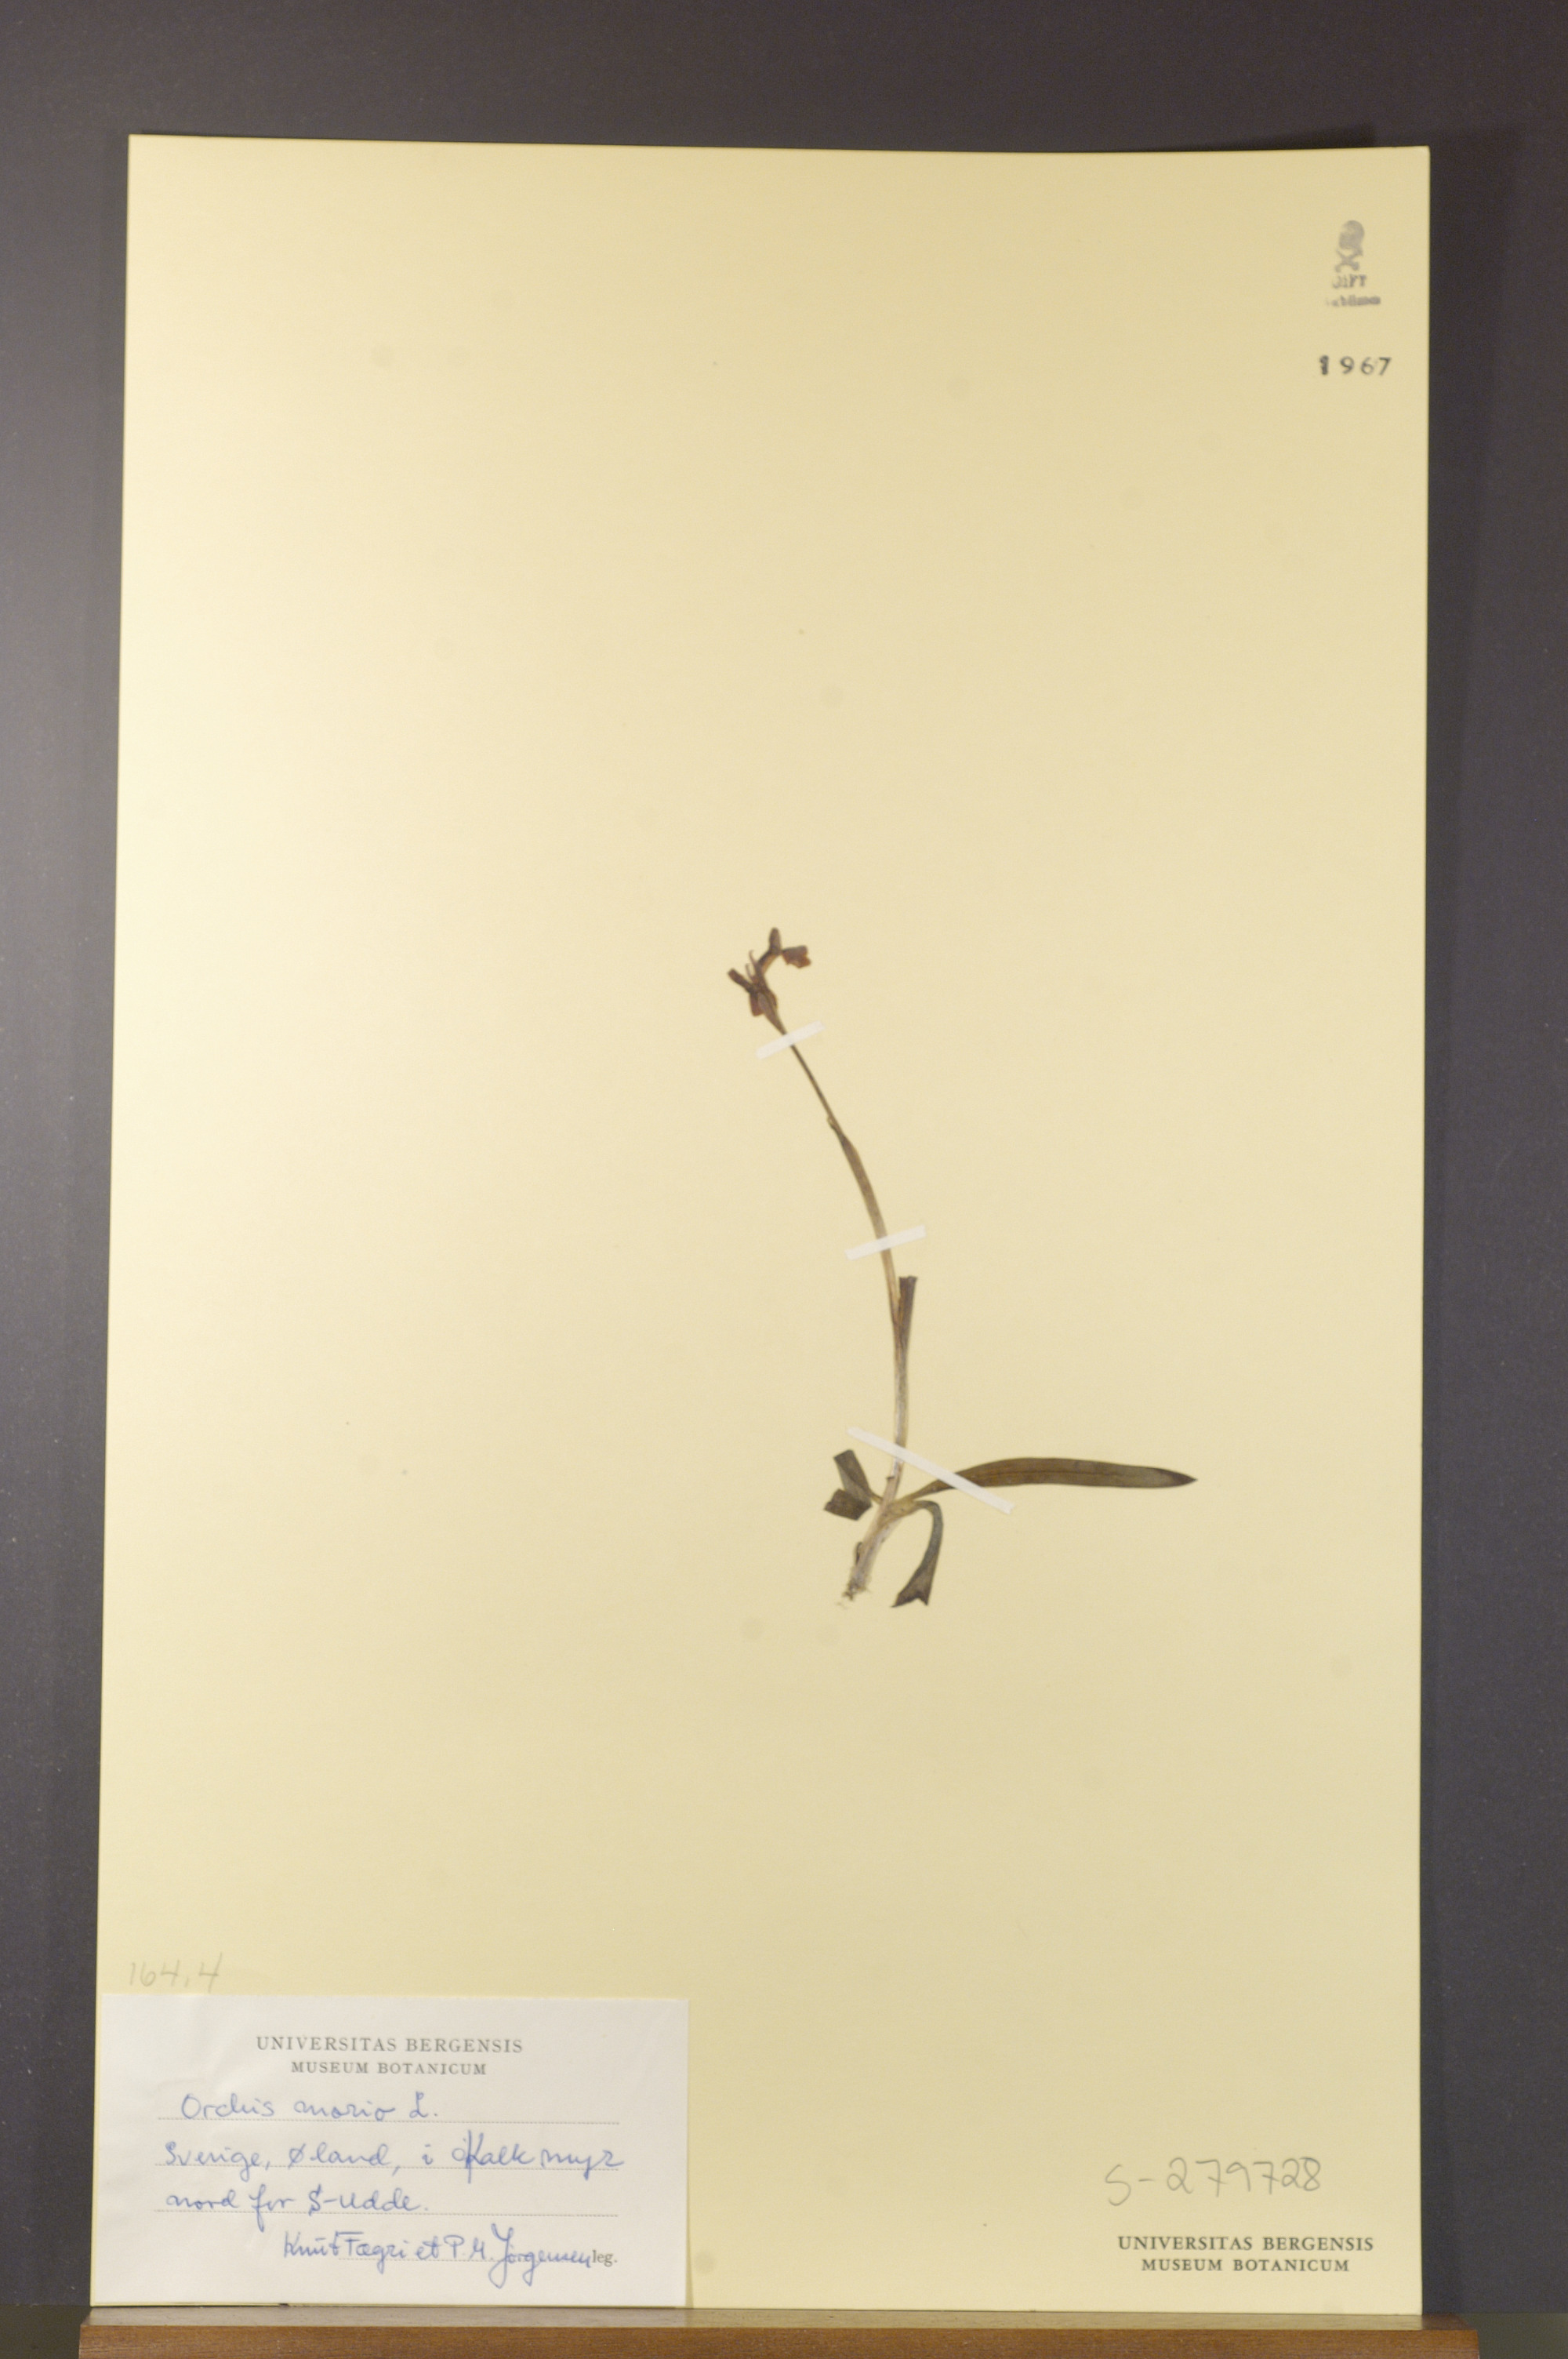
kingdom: Plantae
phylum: Tracheophyta
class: Liliopsida
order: Asparagales
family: Orchidaceae
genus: Anacamptis
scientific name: Anacamptis morio
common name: Green-winged orchid
